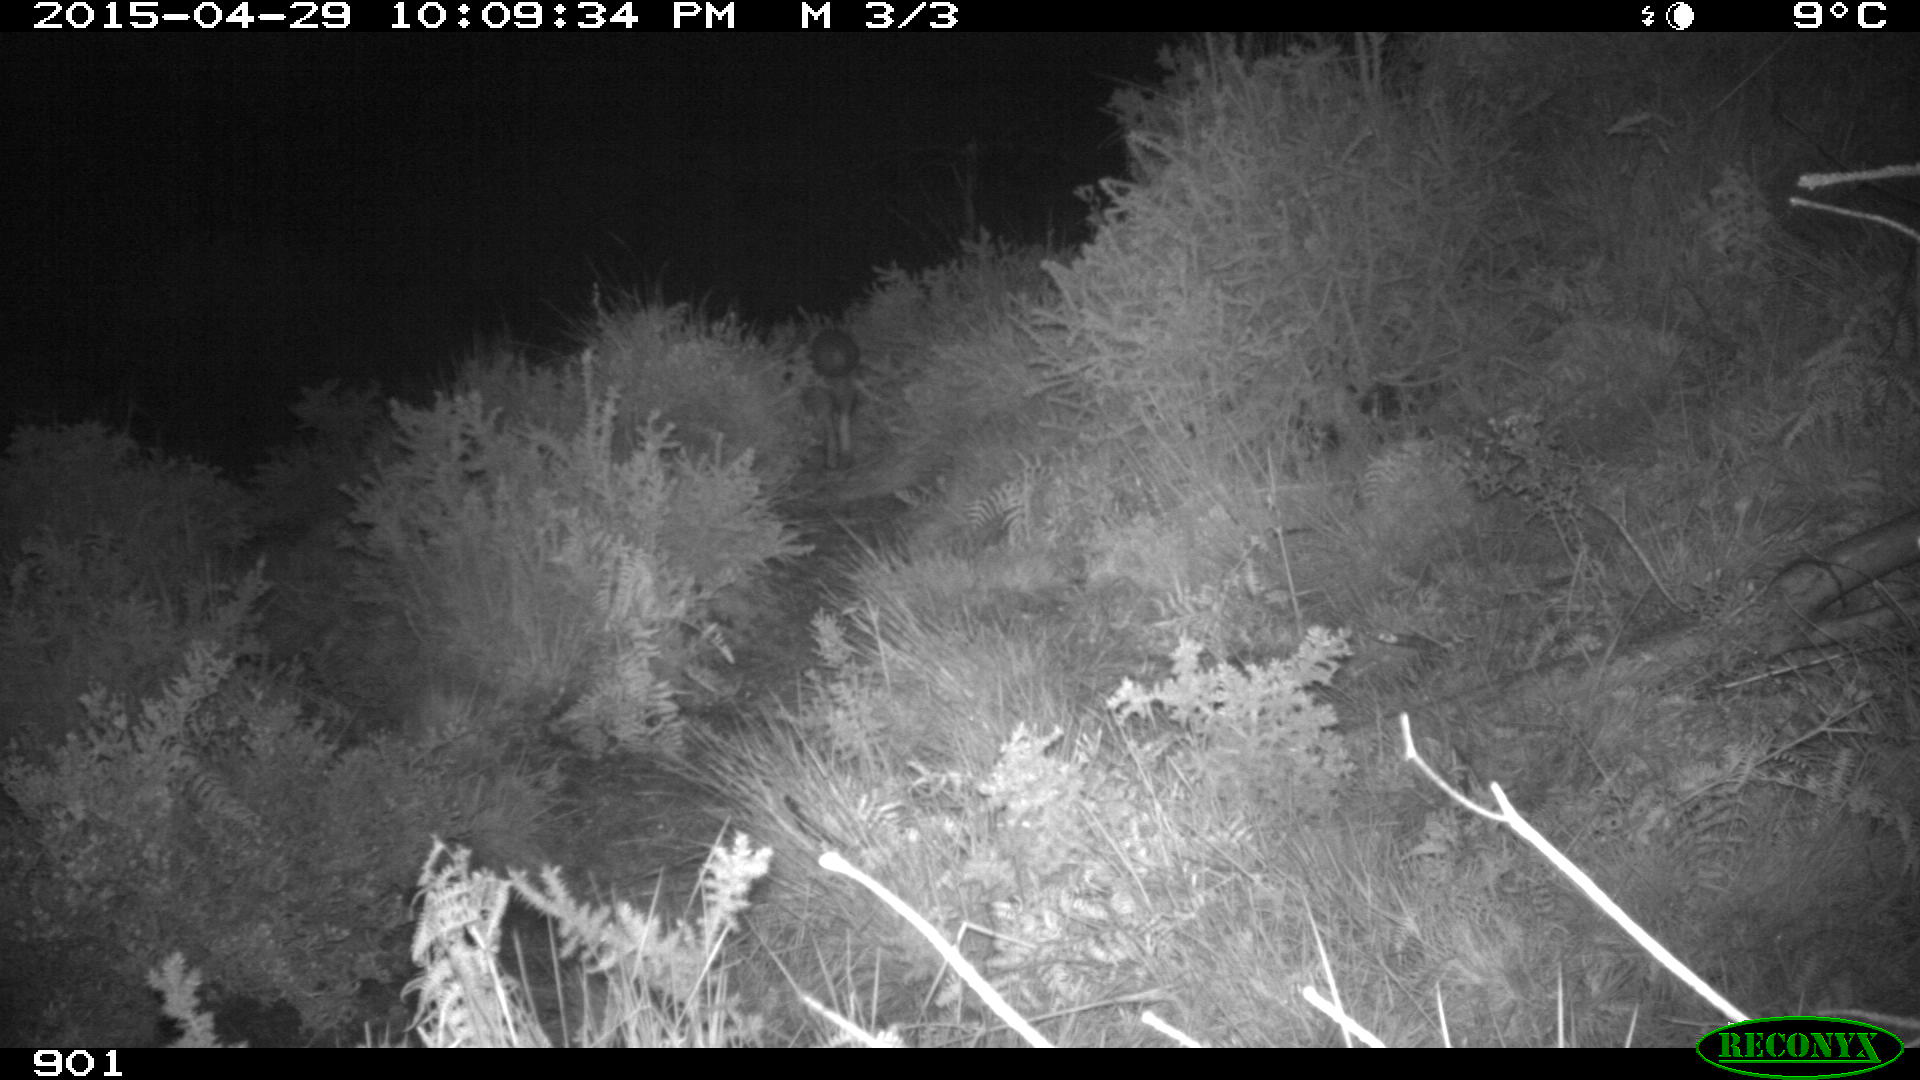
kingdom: Animalia
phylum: Chordata
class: Mammalia
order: Carnivora
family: Canidae
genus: Vulpes
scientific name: Vulpes vulpes
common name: Red fox
